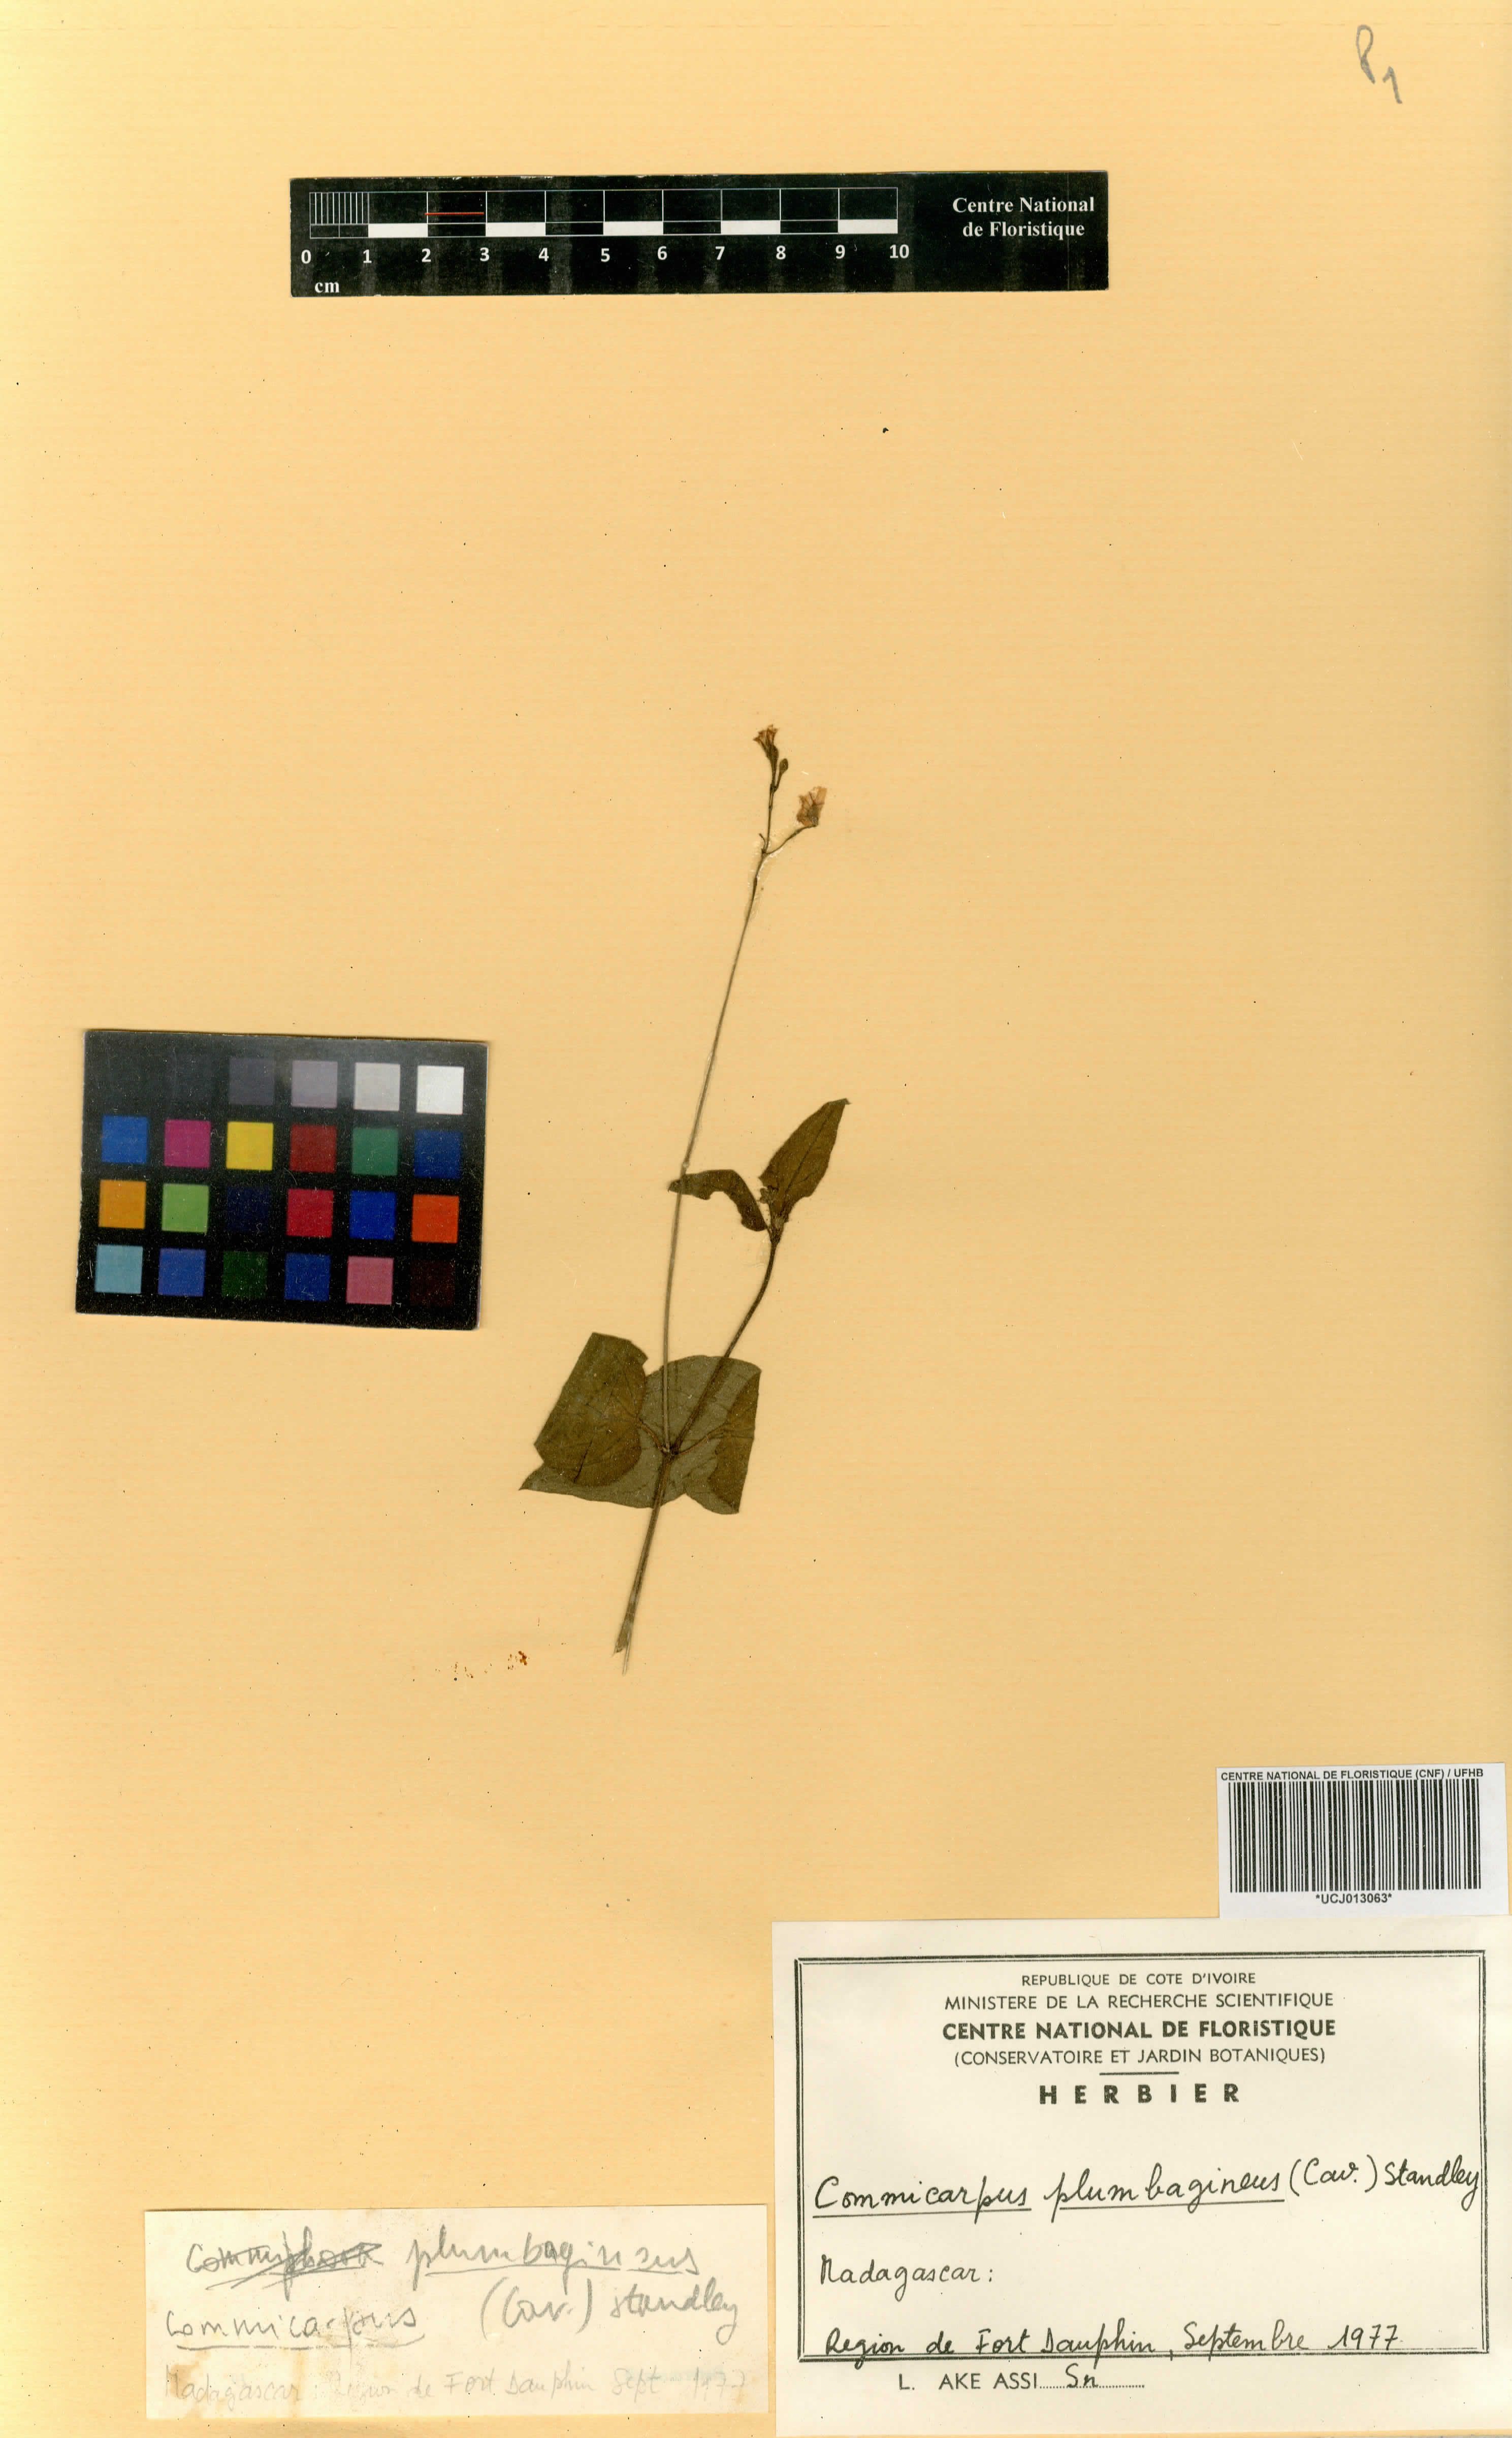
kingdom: Plantae
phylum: Tracheophyta
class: Magnoliopsida
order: Caryophyllales
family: Nyctaginaceae
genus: Commicarpus
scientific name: Commicarpus plumbagineus
